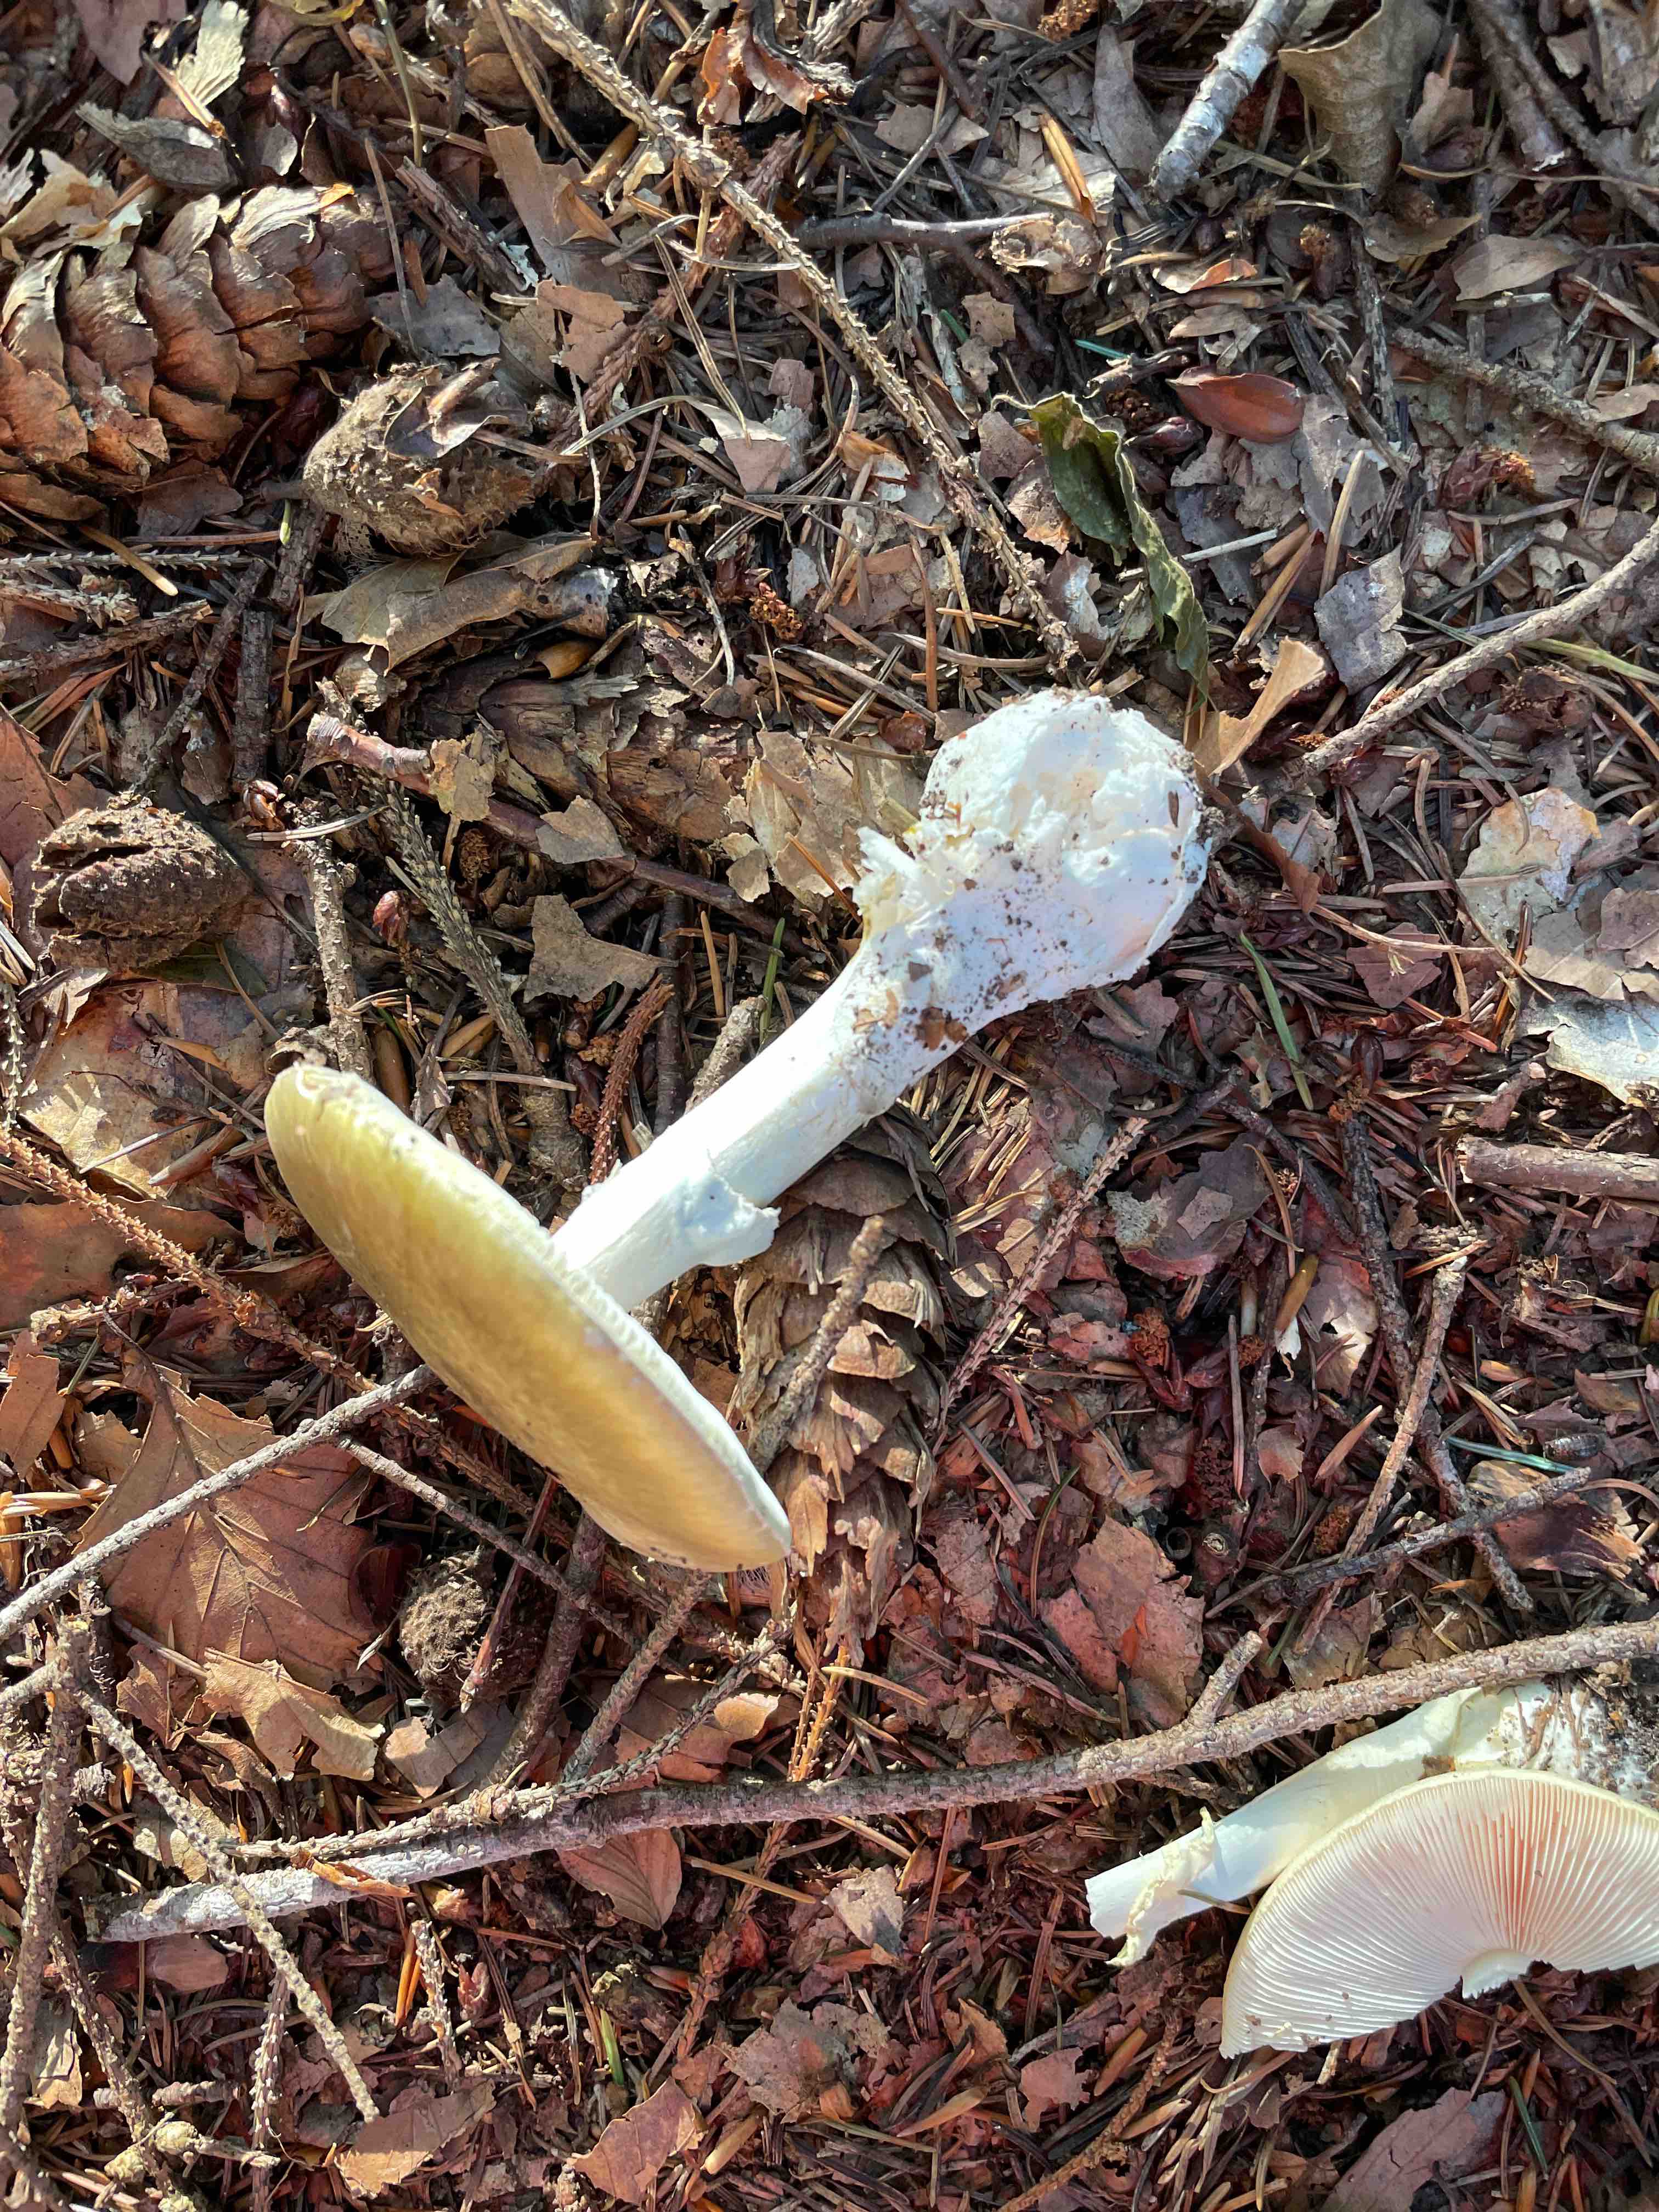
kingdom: Fungi
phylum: Basidiomycota
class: Agaricomycetes
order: Agaricales
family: Amanitaceae
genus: Amanita
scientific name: Amanita phalloides
